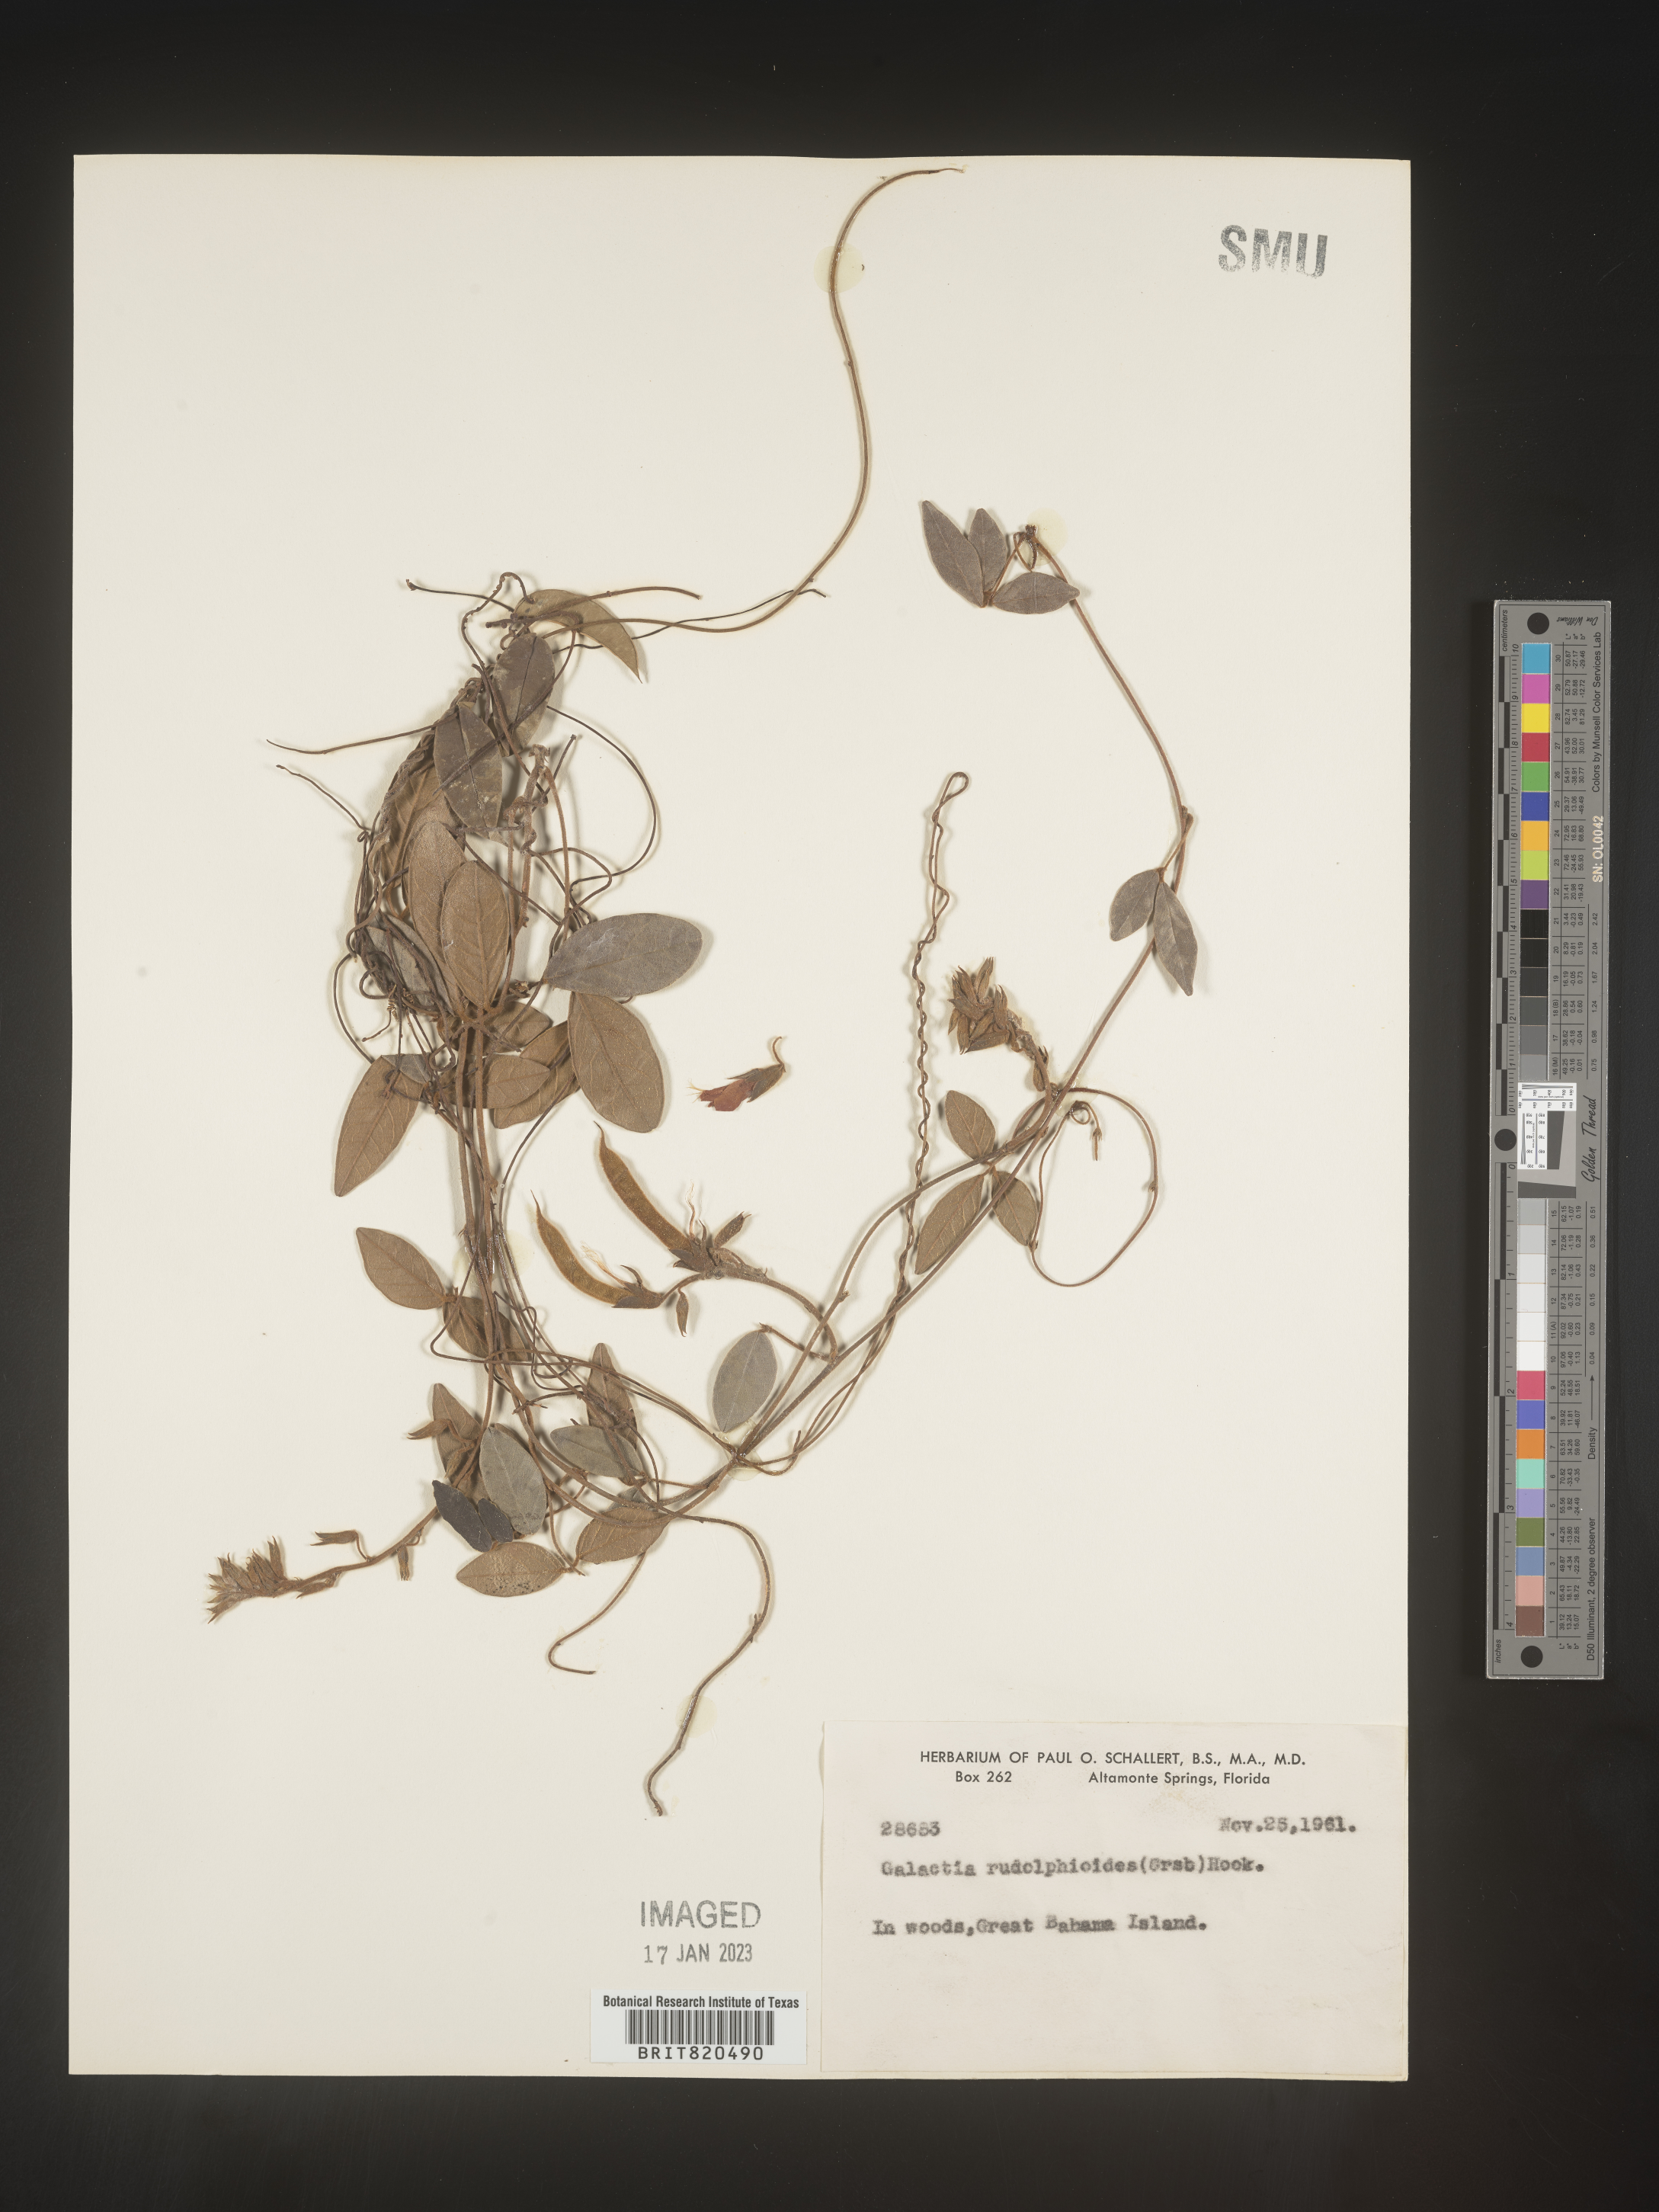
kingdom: Plantae
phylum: Tracheophyta
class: Magnoliopsida
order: Fabales
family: Fabaceae
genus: Galactia
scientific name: Galactia
